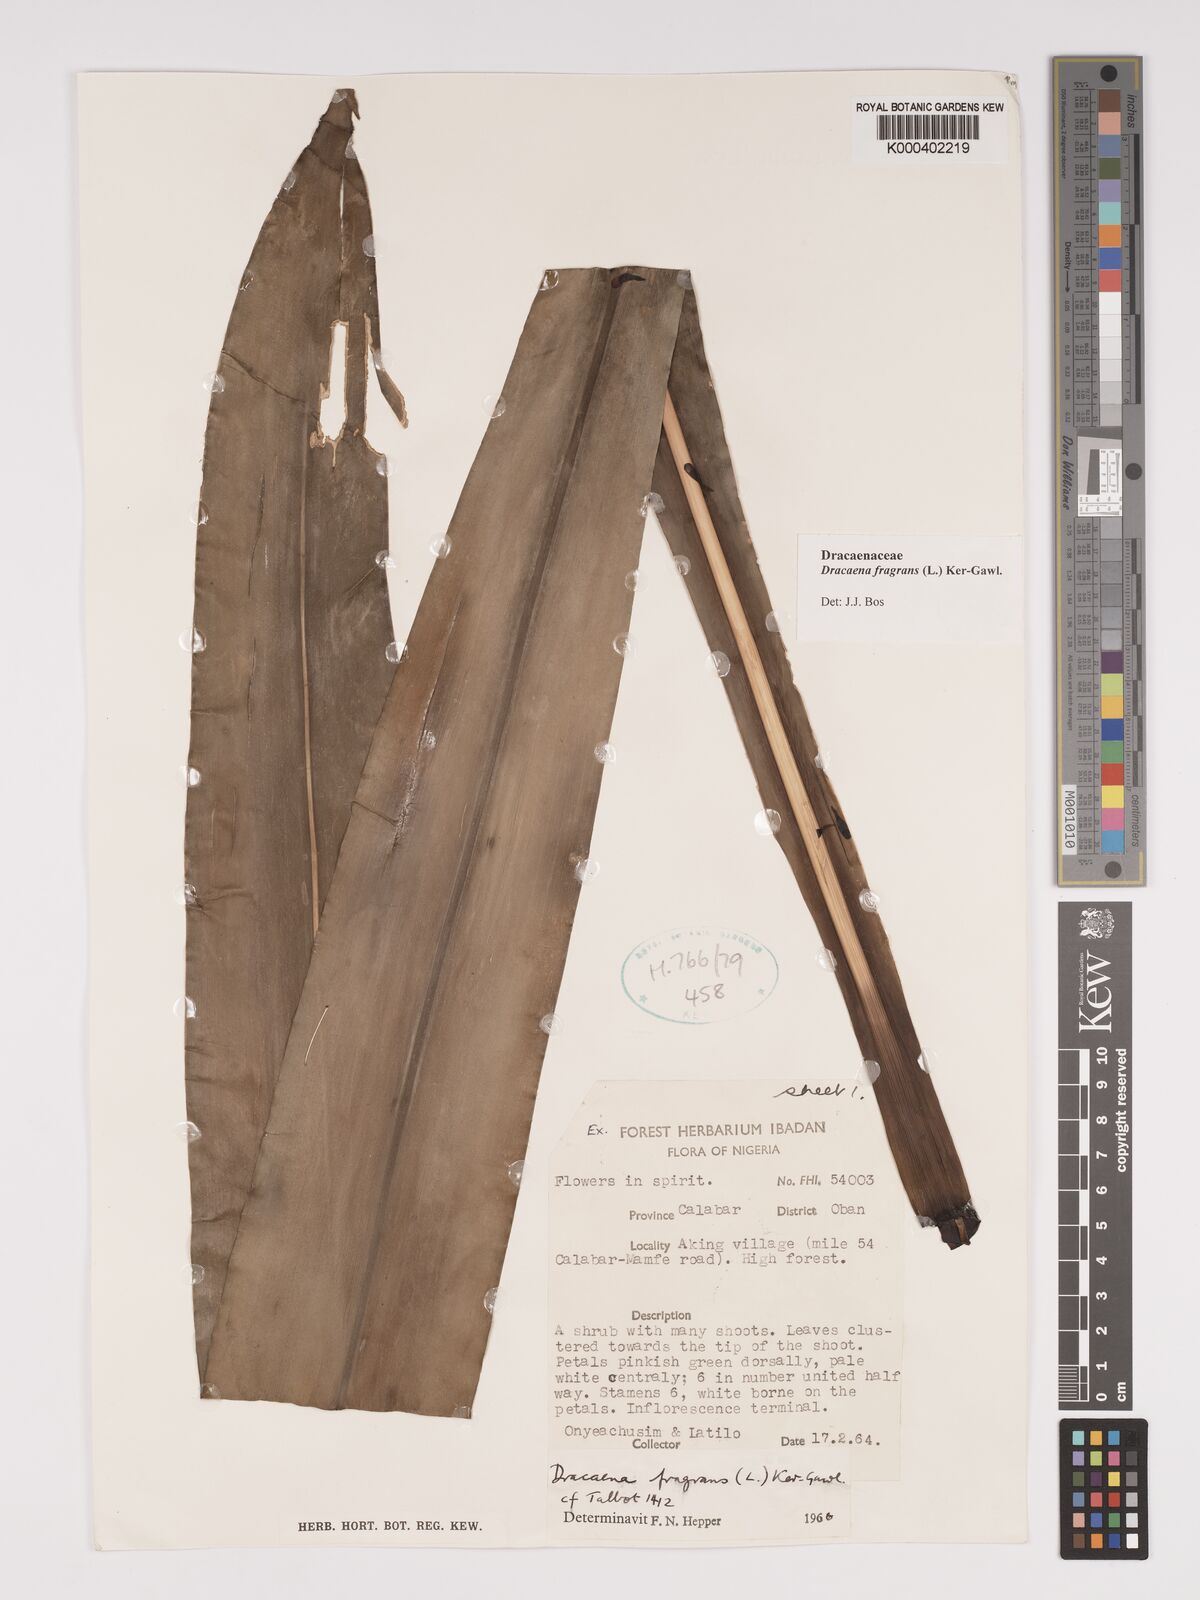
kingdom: Plantae
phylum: Tracheophyta
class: Liliopsida
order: Asparagales
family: Asparagaceae
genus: Dracaena
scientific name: Dracaena fragrans
